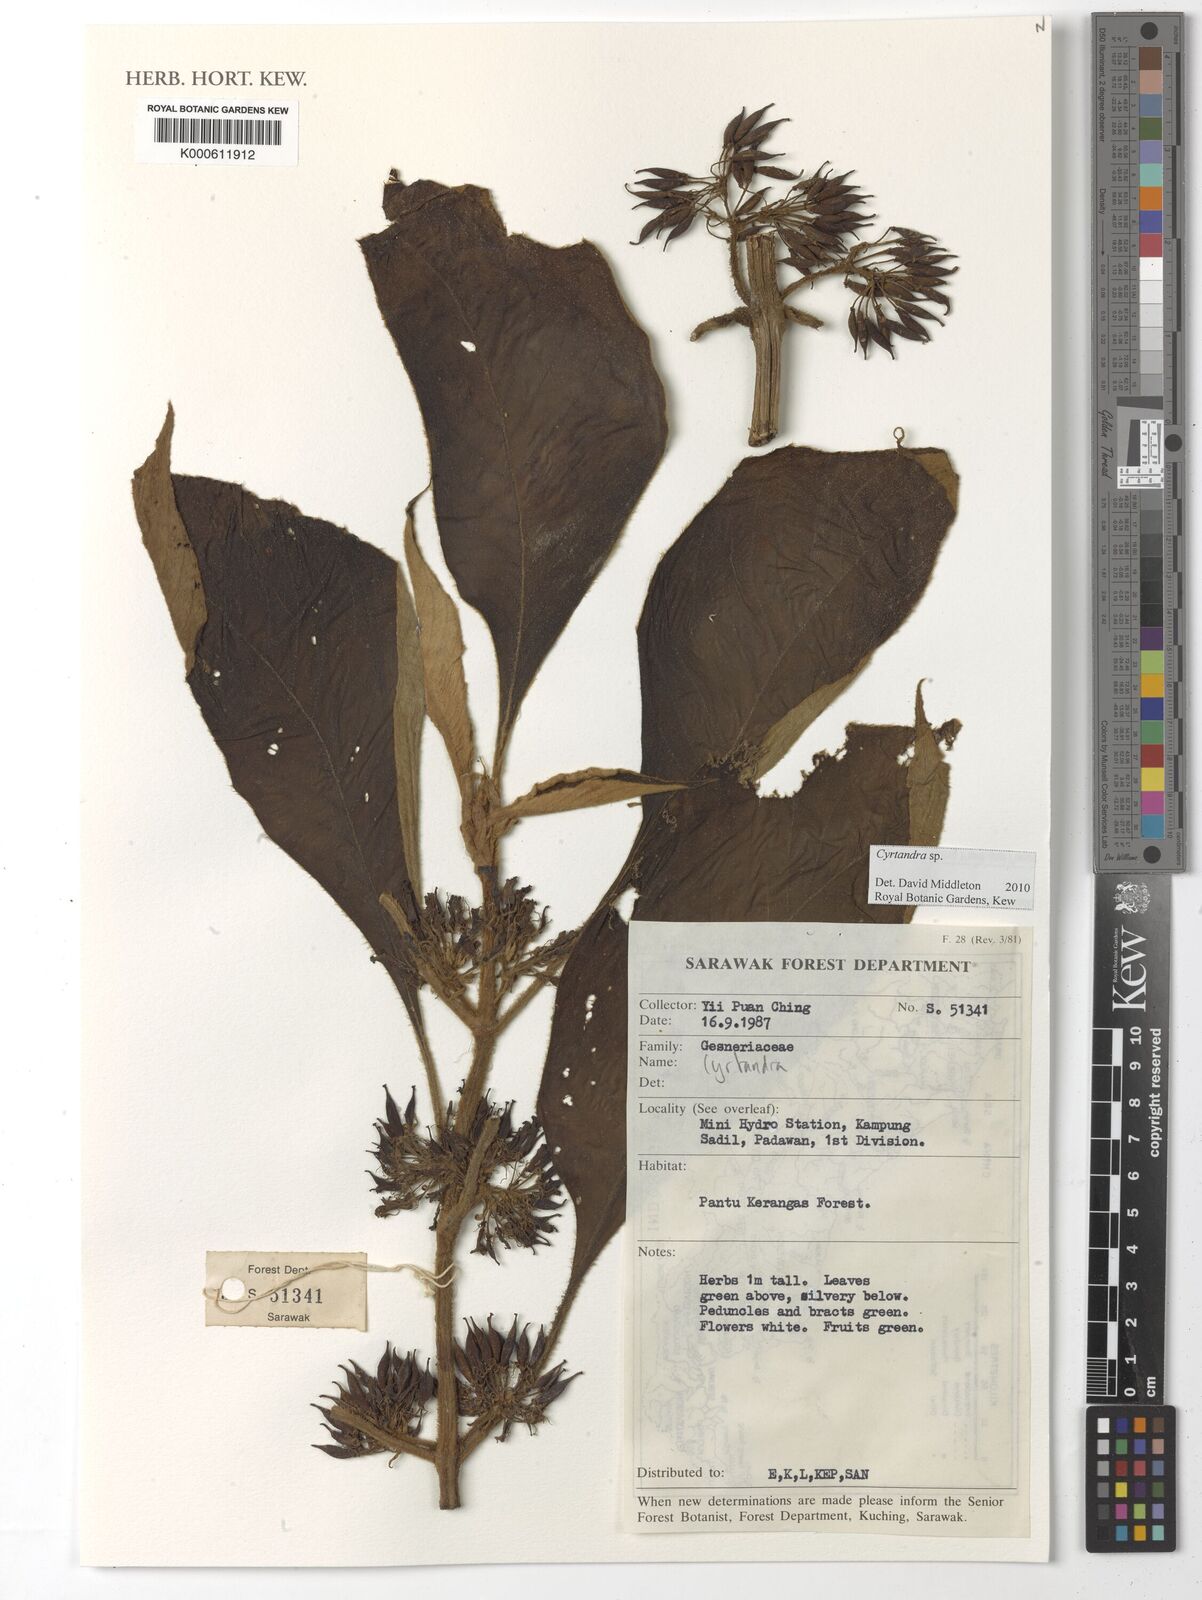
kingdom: Plantae
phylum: Tracheophyta
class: Magnoliopsida
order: Lamiales
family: Gesneriaceae
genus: Cyrtandra
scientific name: Cyrtandra
